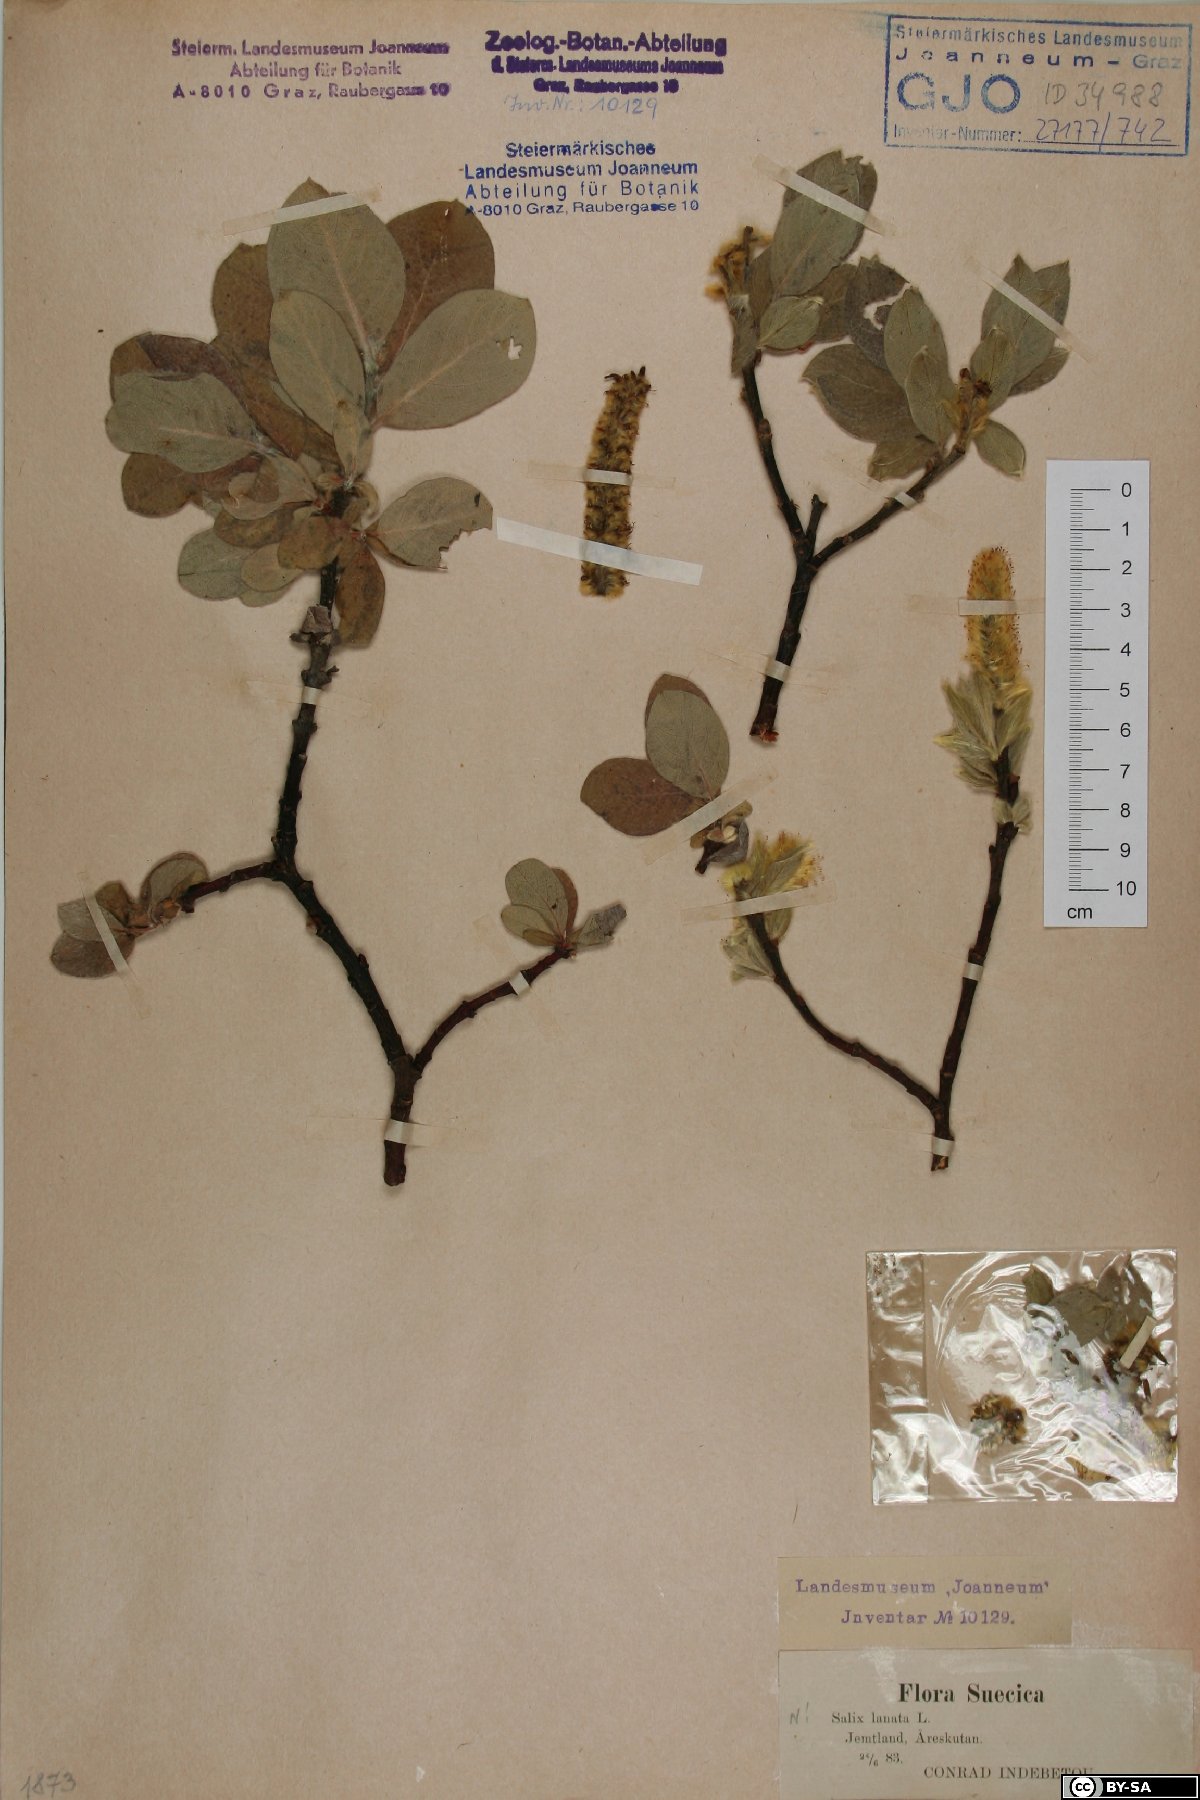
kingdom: Plantae
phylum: Tracheophyta
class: Magnoliopsida
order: Malpighiales
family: Salicaceae
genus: Salix
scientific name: Salix lanata
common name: Woolly willow
